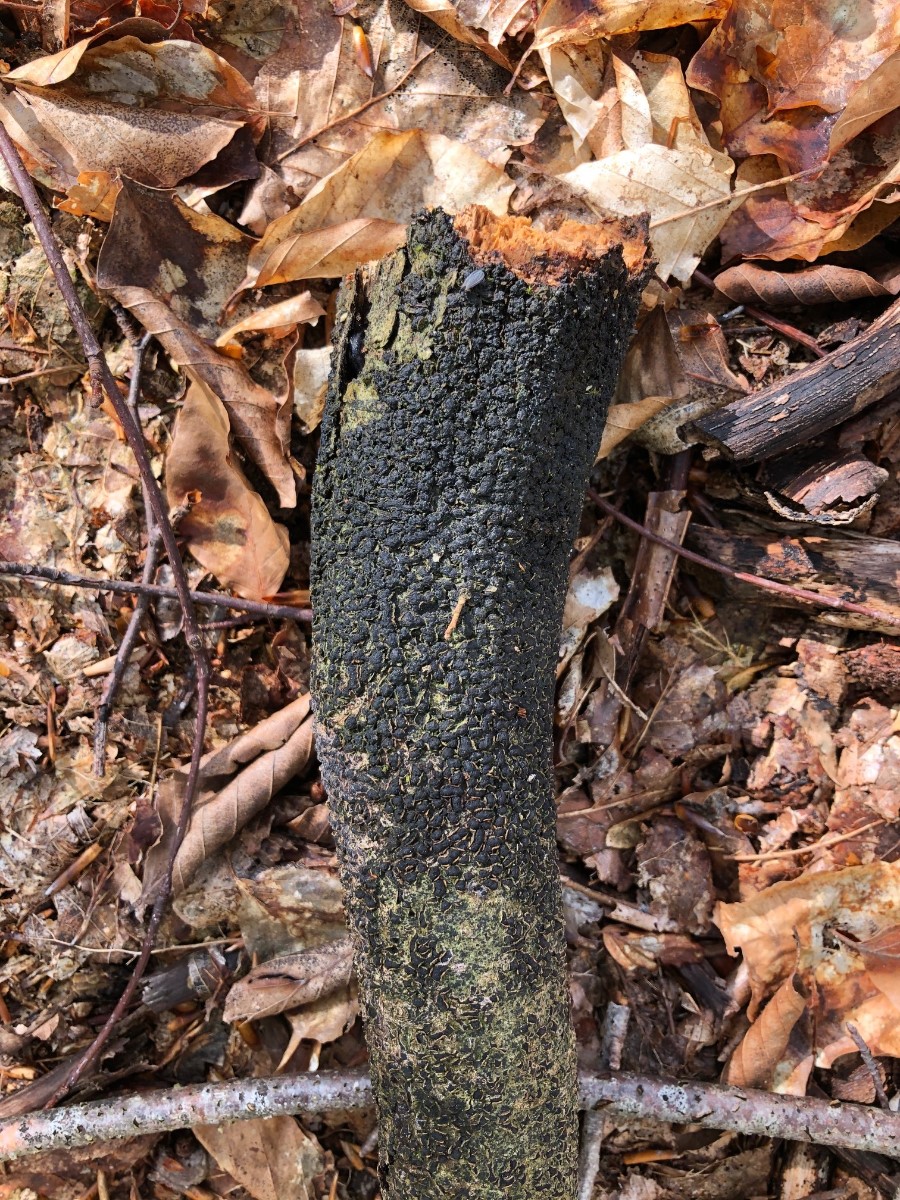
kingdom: Fungi
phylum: Ascomycota
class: Sordariomycetes
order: Xylariales
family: Melogrammataceae
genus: Melogramma
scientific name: Melogramma spiniferum
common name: bøgefod-kulhals
